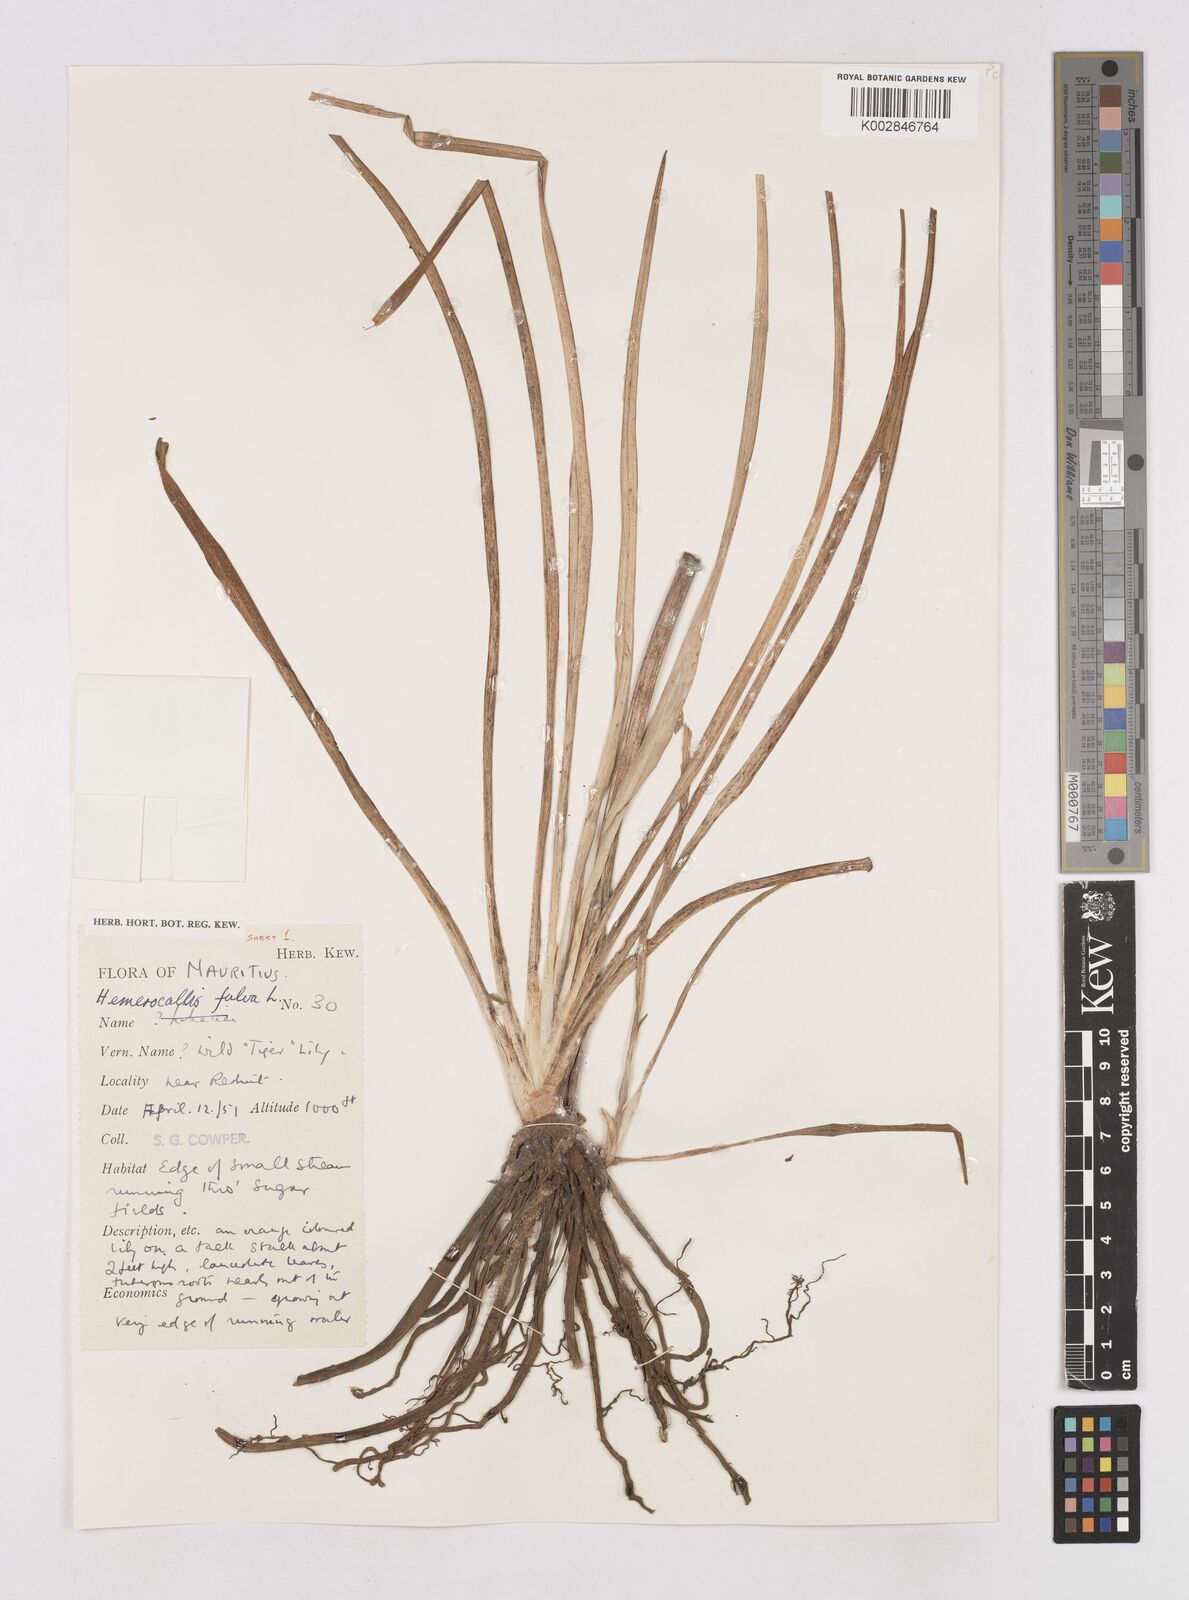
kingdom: Plantae
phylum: Tracheophyta
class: Liliopsida
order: Asparagales
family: Asphodelaceae
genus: Hemerocallis
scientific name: Hemerocallis fulva
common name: Orange day-lily
